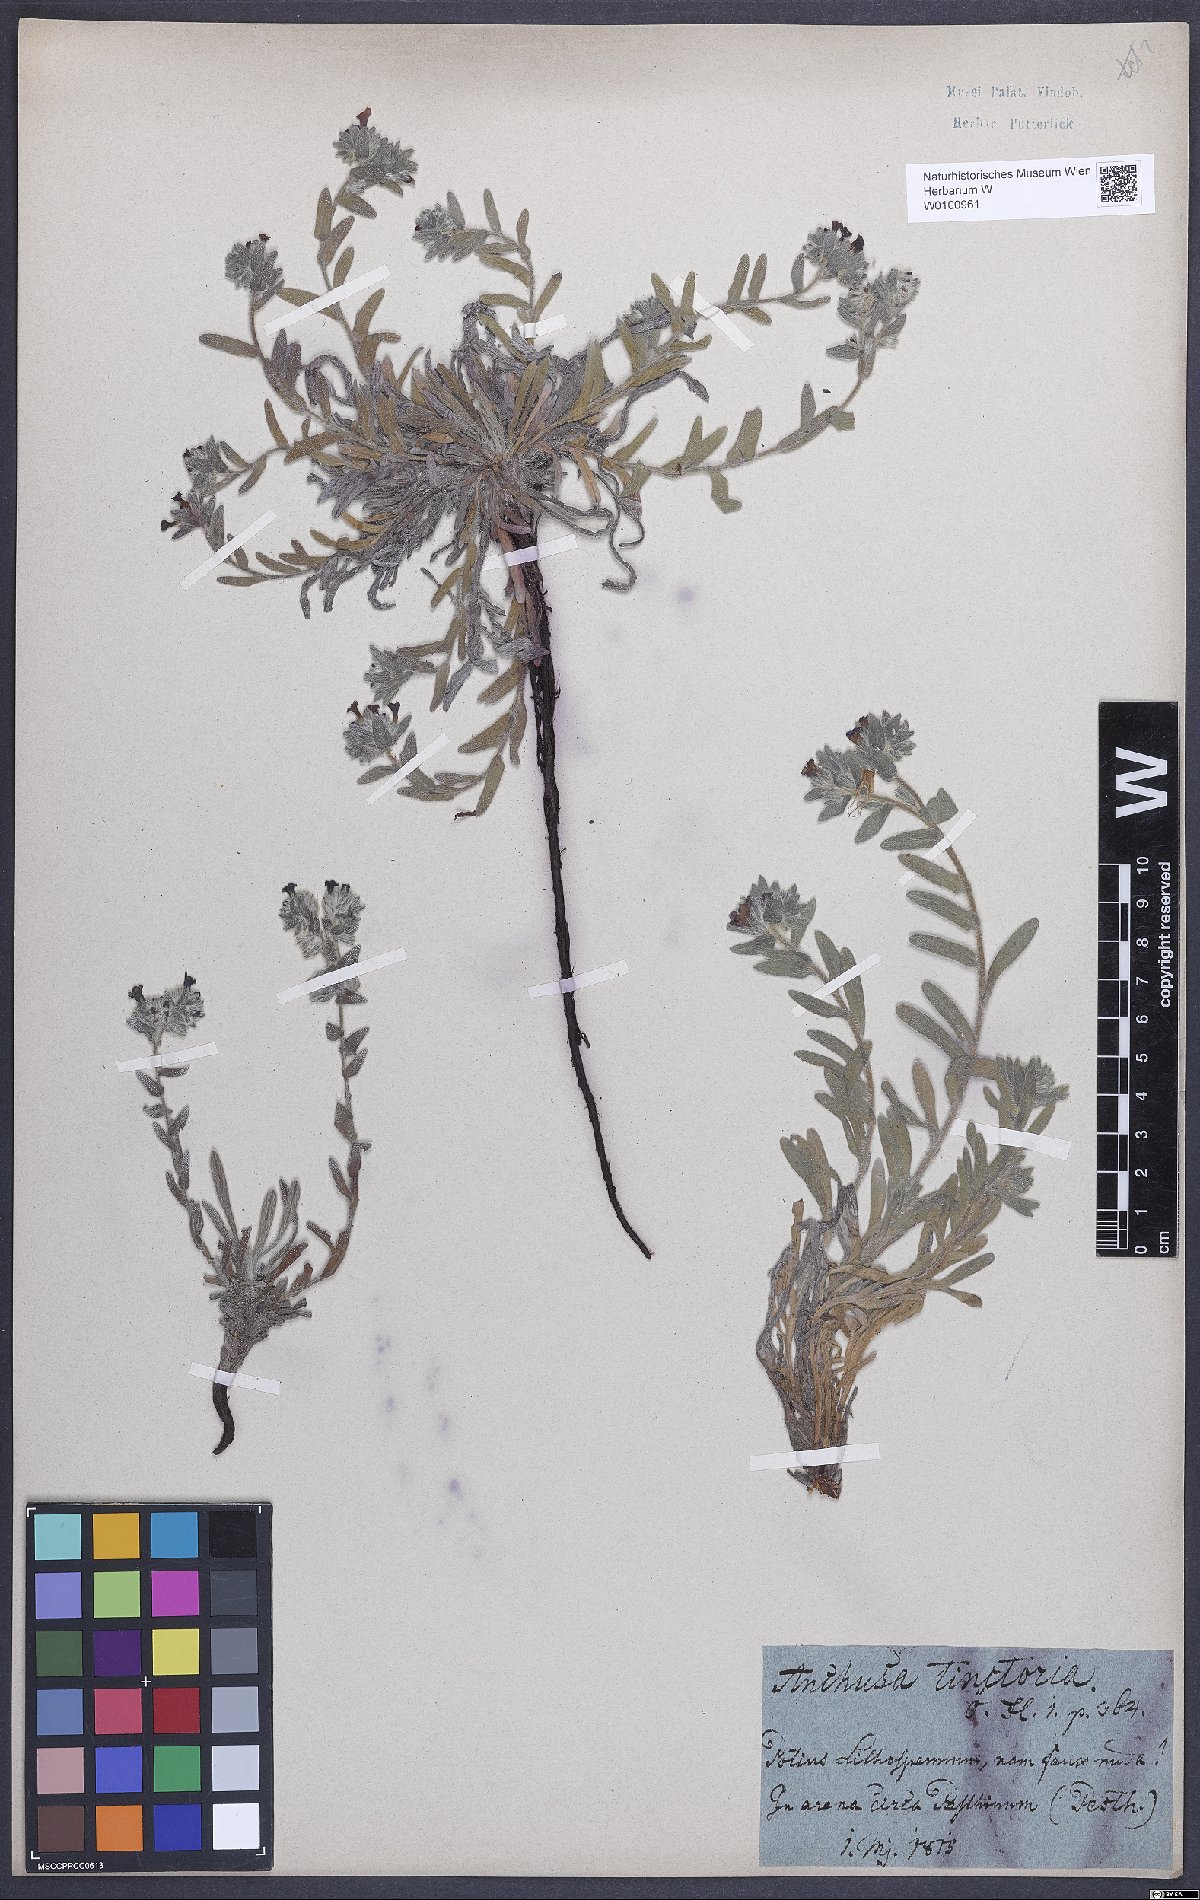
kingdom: Plantae
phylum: Tracheophyta
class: Magnoliopsida
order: Boraginales
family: Boraginaceae
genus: Alkanna
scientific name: Alkanna tinctoria
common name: Dyer's-alkanet
